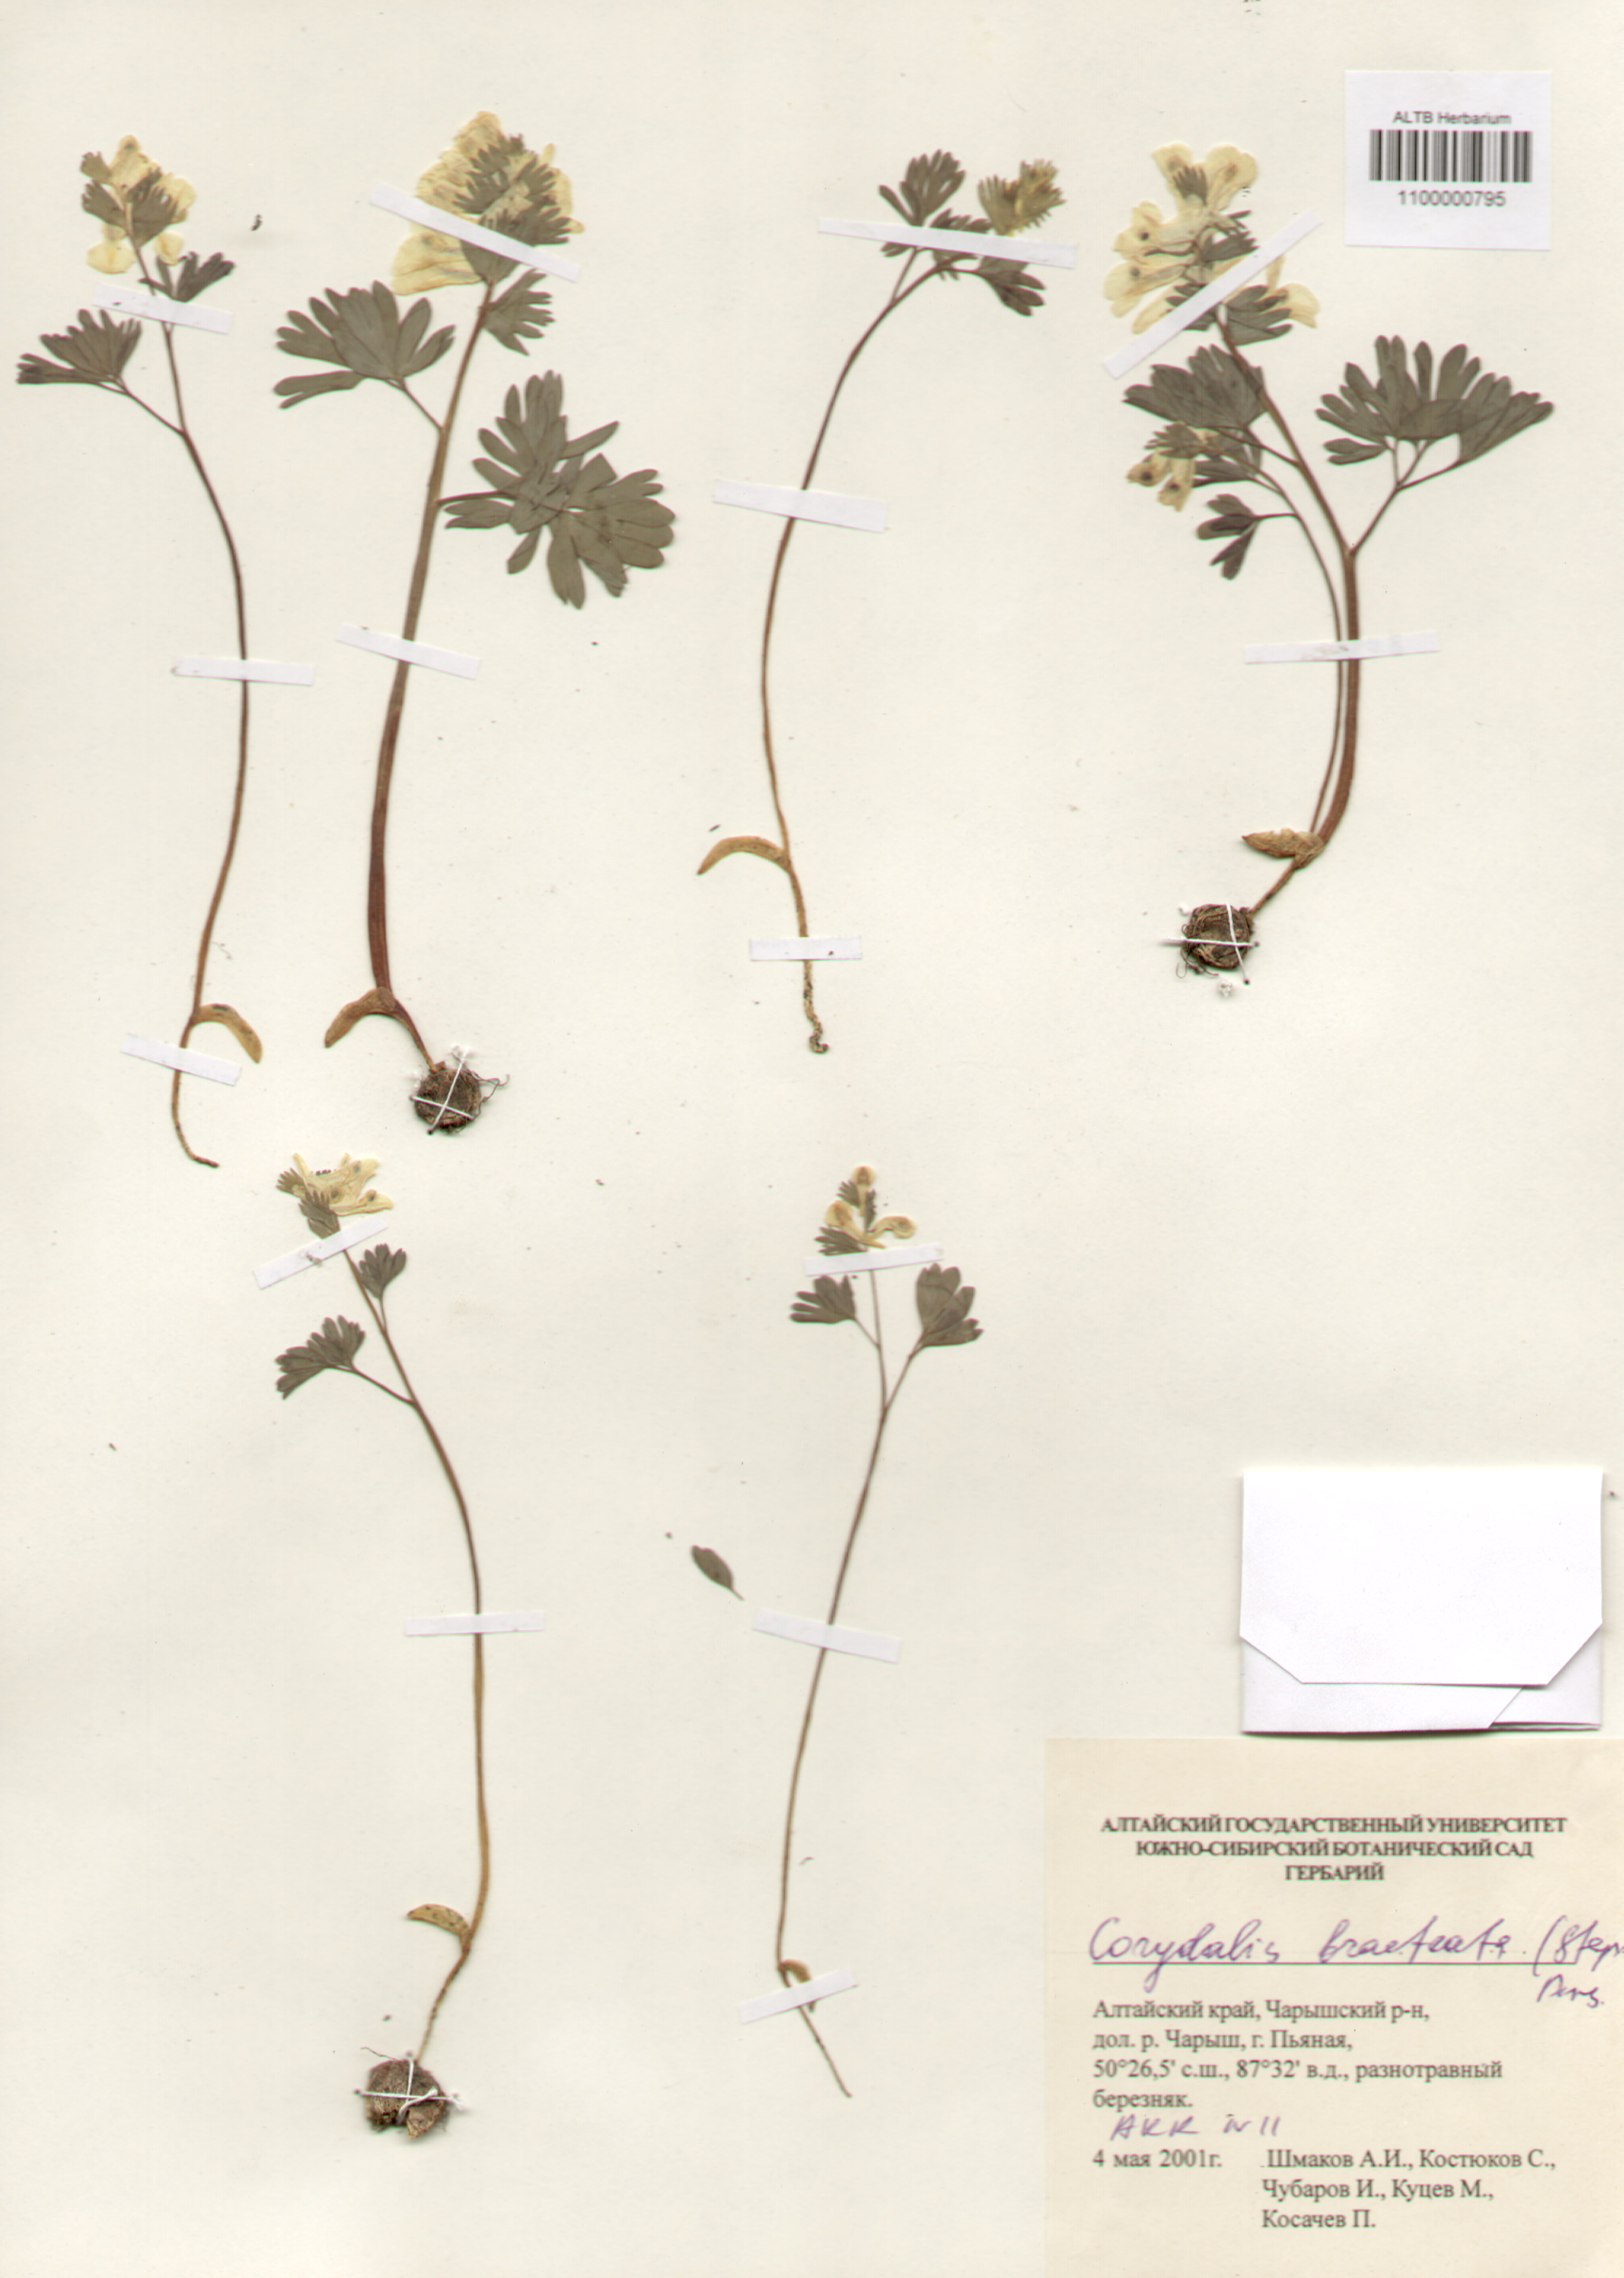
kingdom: Plantae
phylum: Tracheophyta
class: Magnoliopsida
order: Ranunculales
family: Papaveraceae
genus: Corydalis
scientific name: Corydalis bracteata
